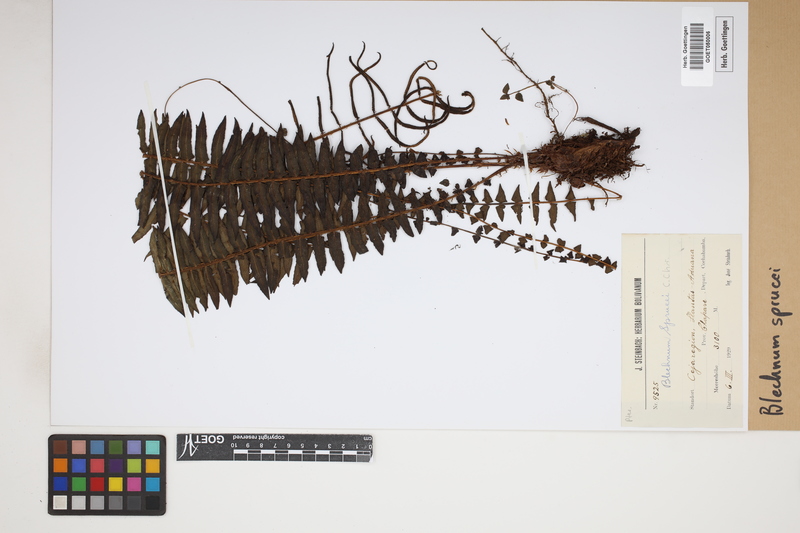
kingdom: Plantae
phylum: Tracheophyta
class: Polypodiopsida
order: Polypodiales
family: Blechnaceae
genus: Cranfillia
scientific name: Cranfillia caudata
